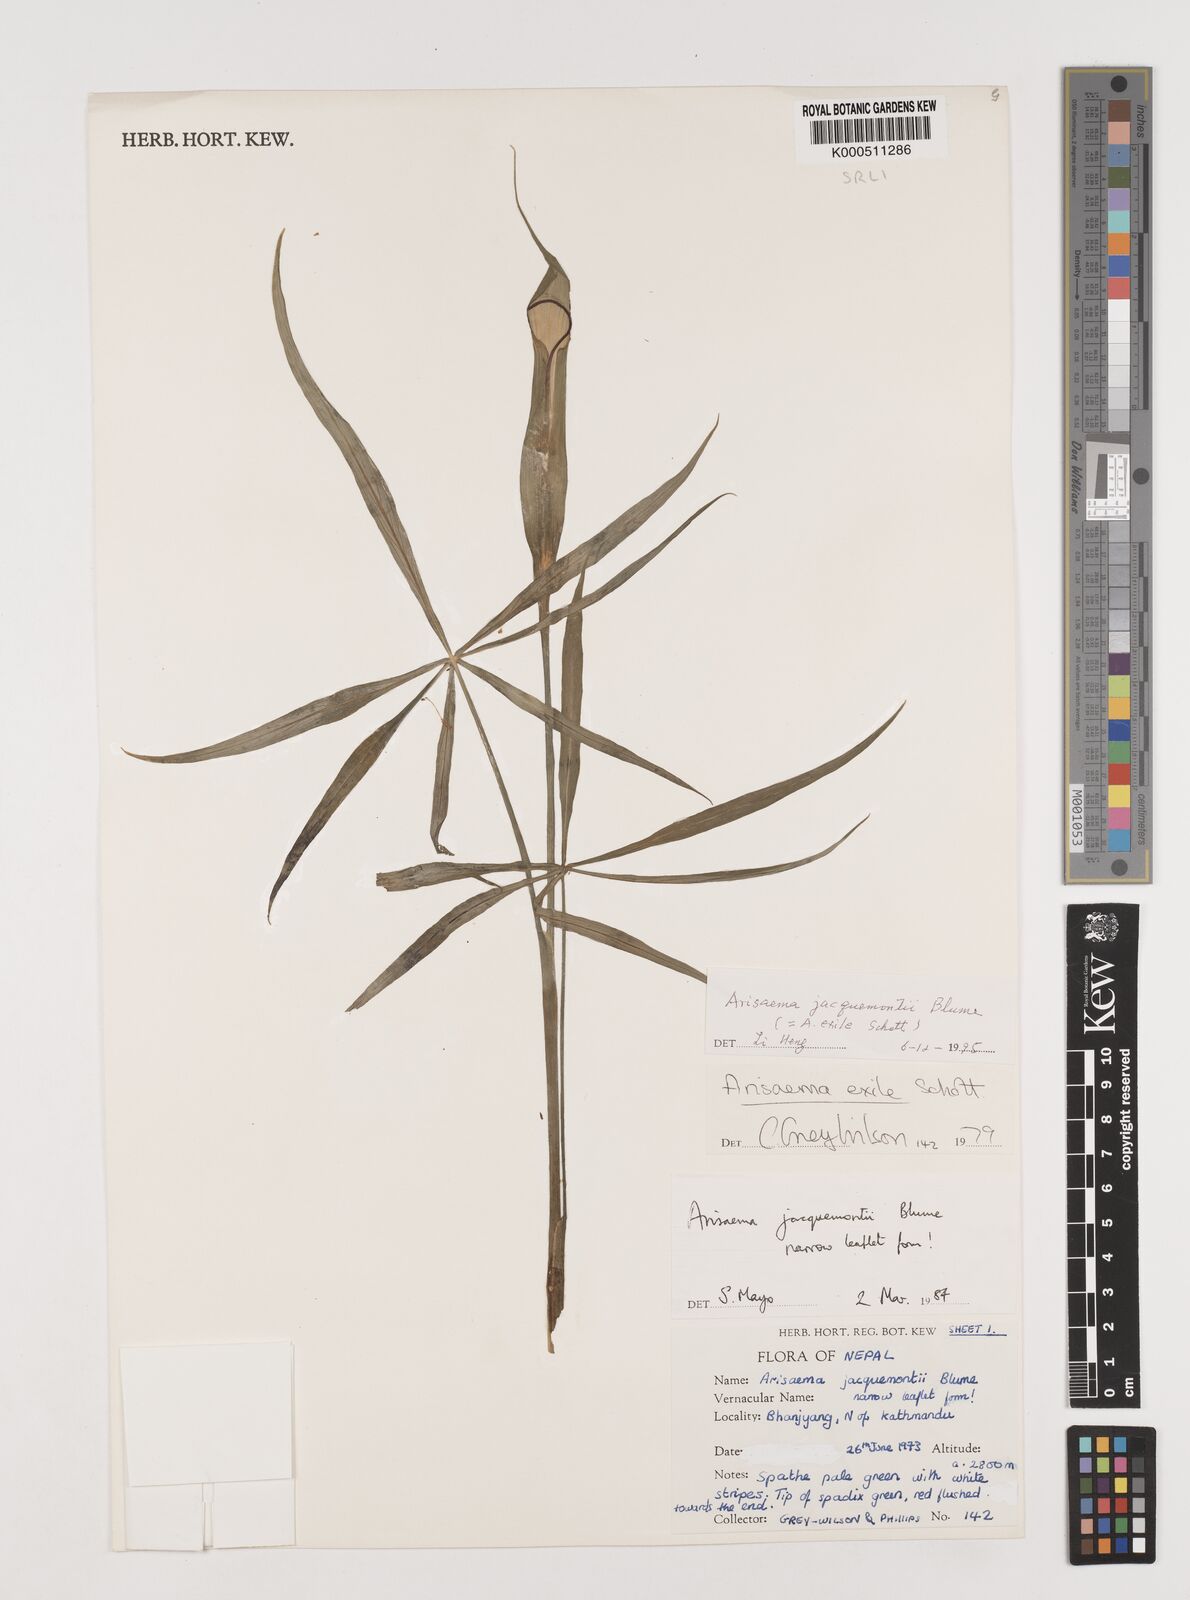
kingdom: Plantae
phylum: Tracheophyta
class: Liliopsida
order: Alismatales
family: Araceae
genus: Arisaema
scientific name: Arisaema jacquemontii
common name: Jacquemont's cobra-lily
